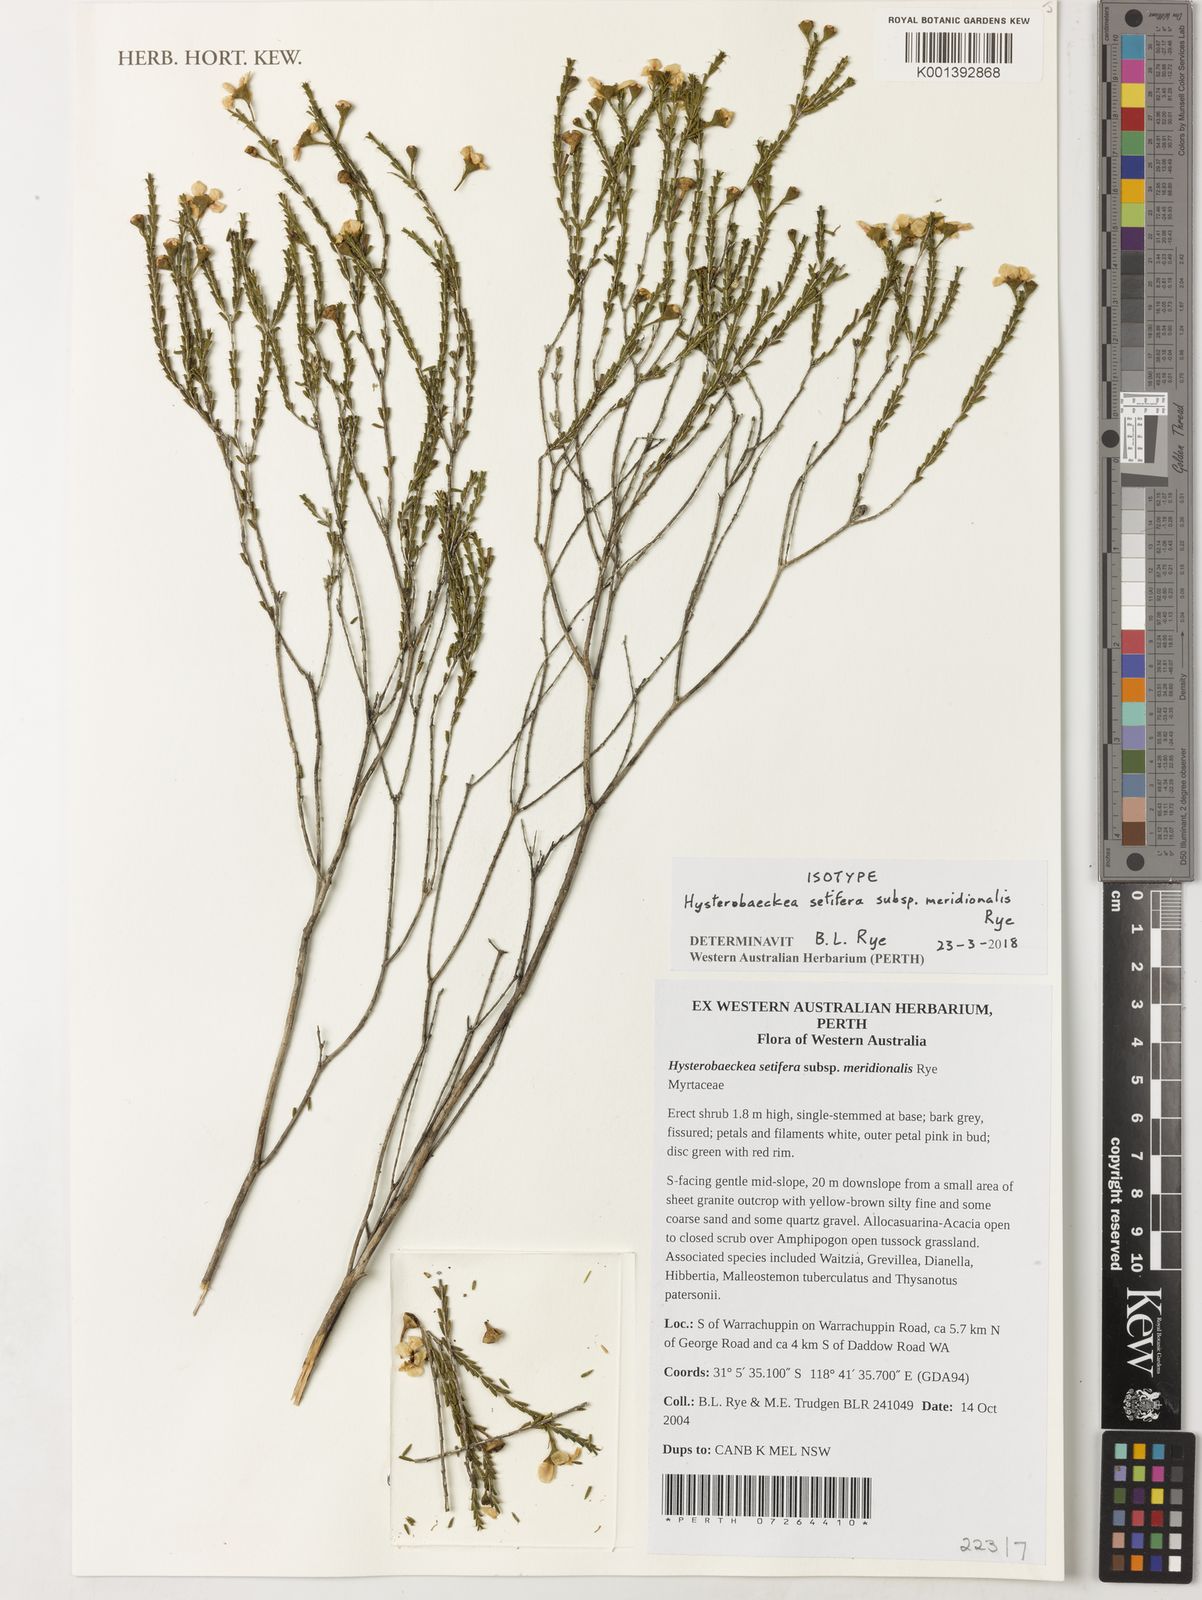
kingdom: Plantae
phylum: Tracheophyta
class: Magnoliopsida
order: Myrtales
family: Myrtaceae
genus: Hysterobaeckea
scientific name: Hysterobaeckea setifera
